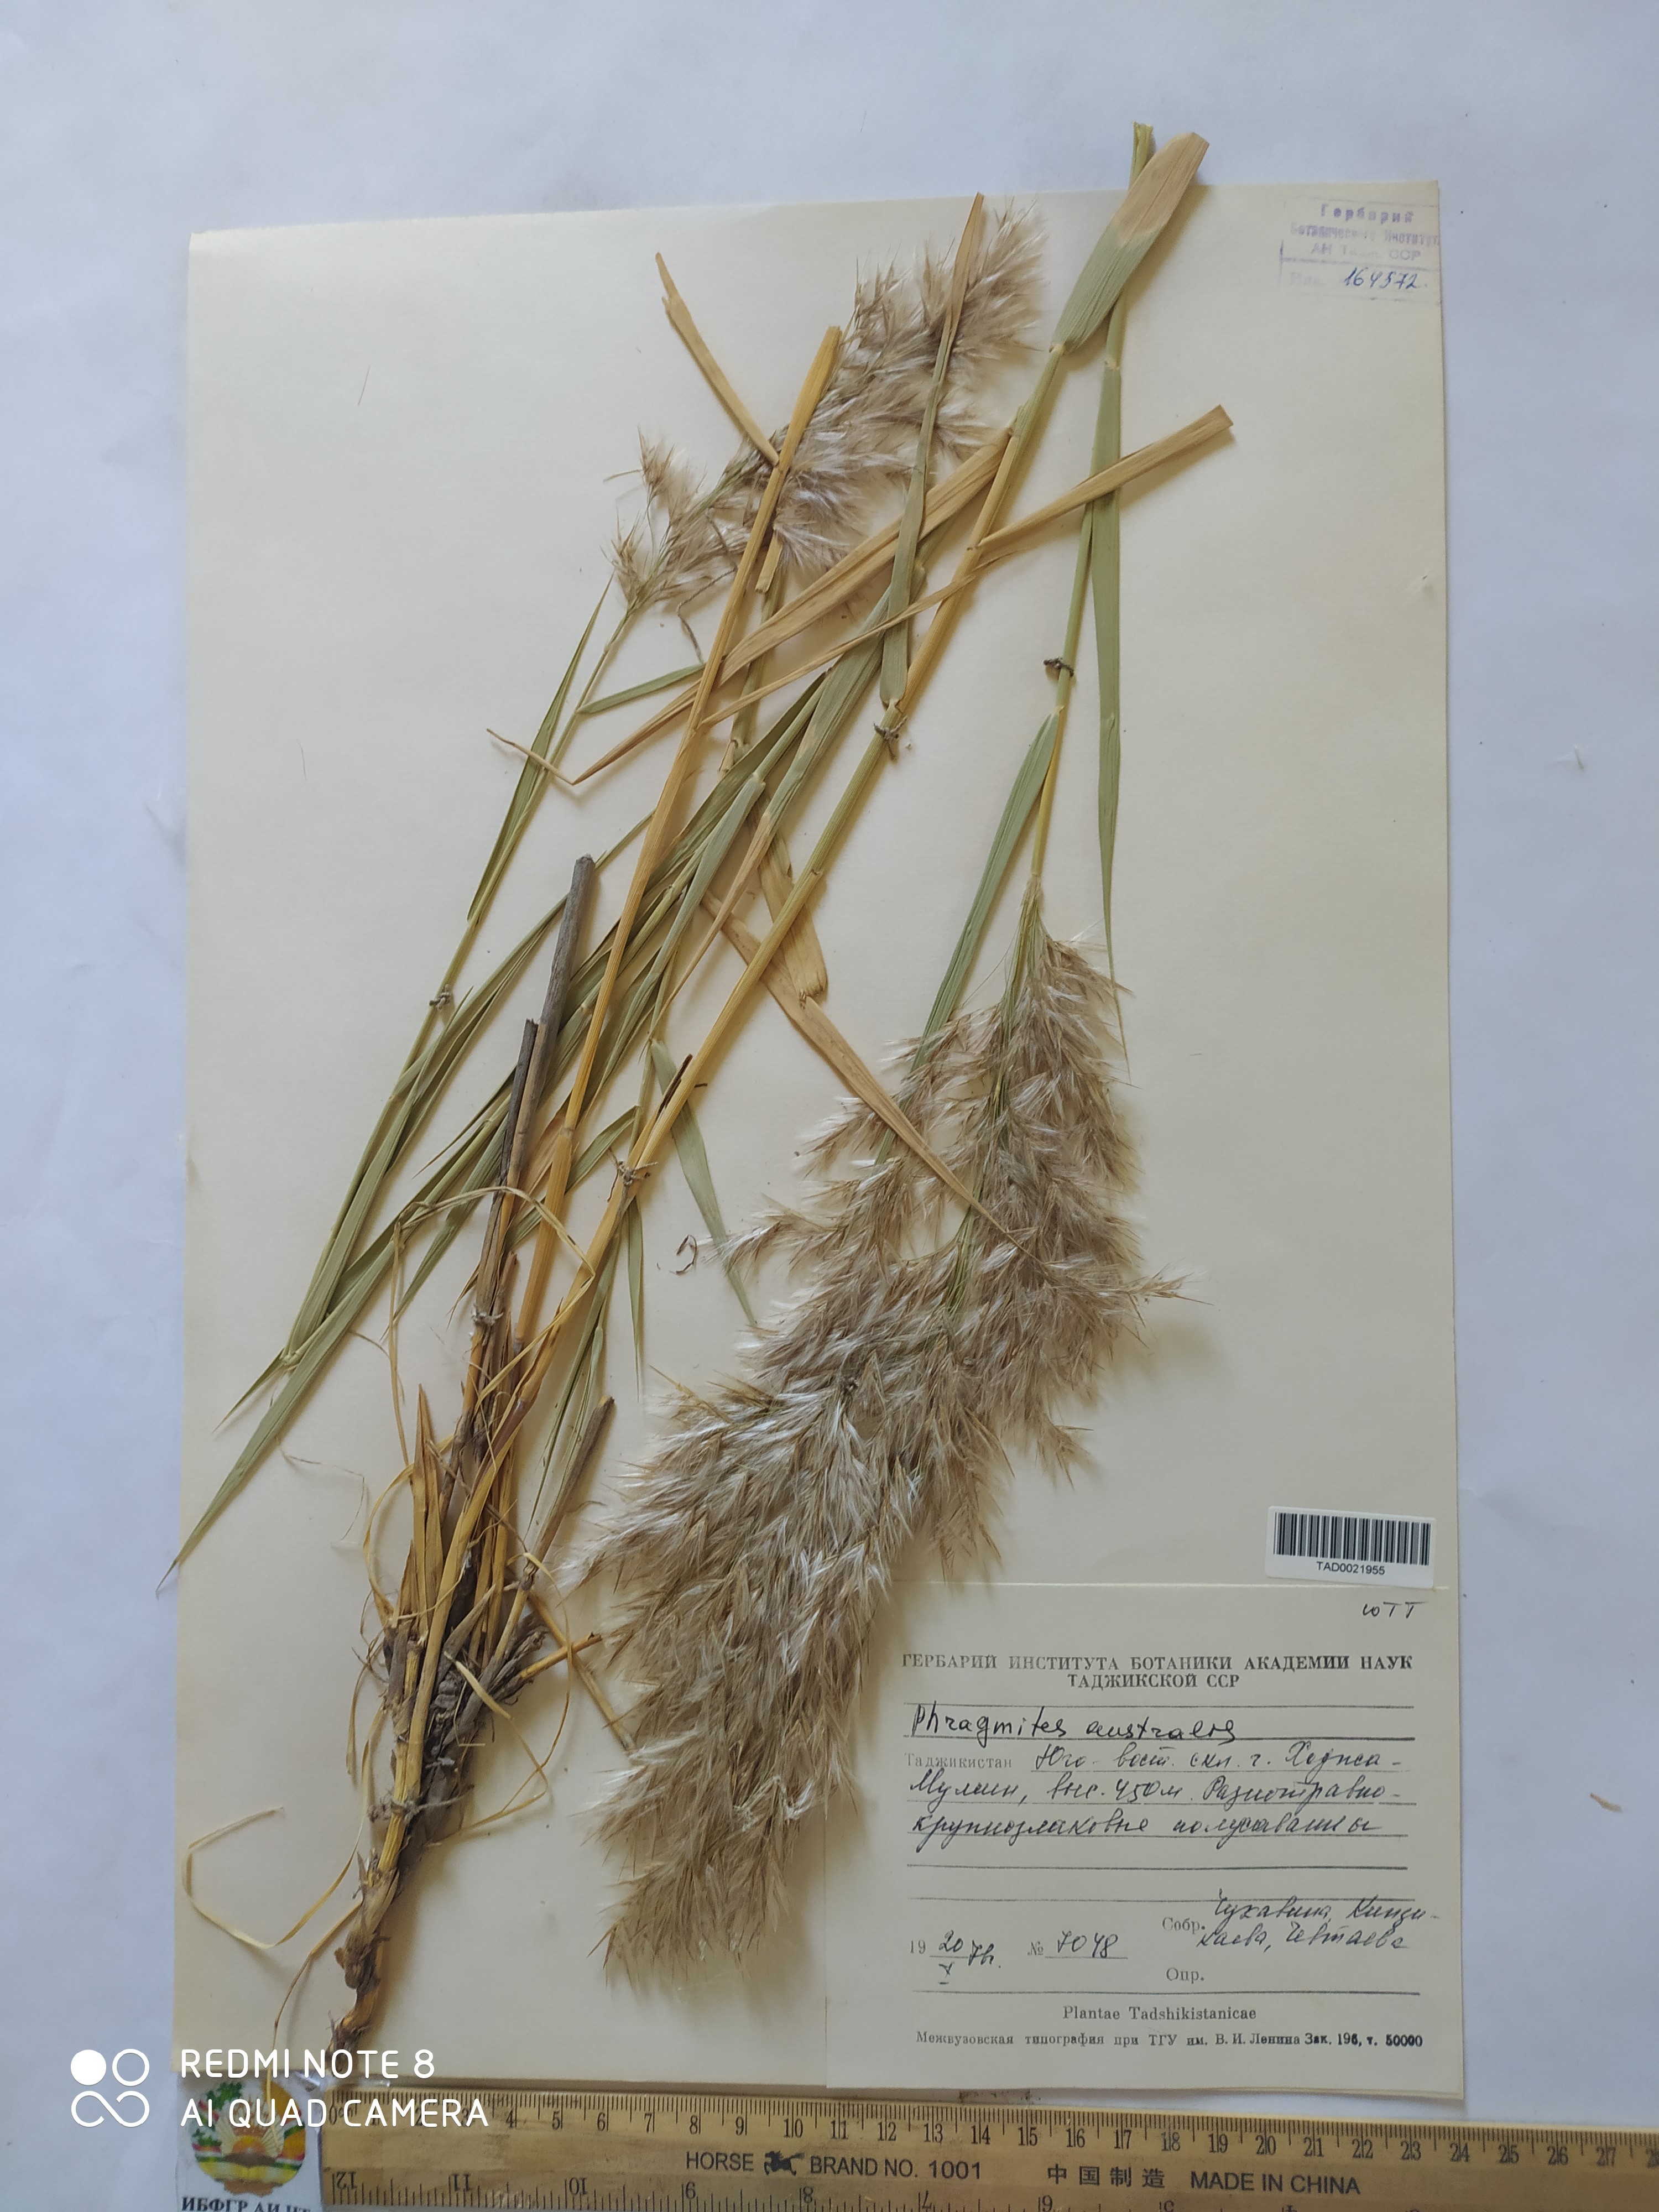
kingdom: Plantae
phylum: Tracheophyta
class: Liliopsida
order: Poales
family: Poaceae
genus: Phragmites
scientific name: Phragmites australis
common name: Common reed
